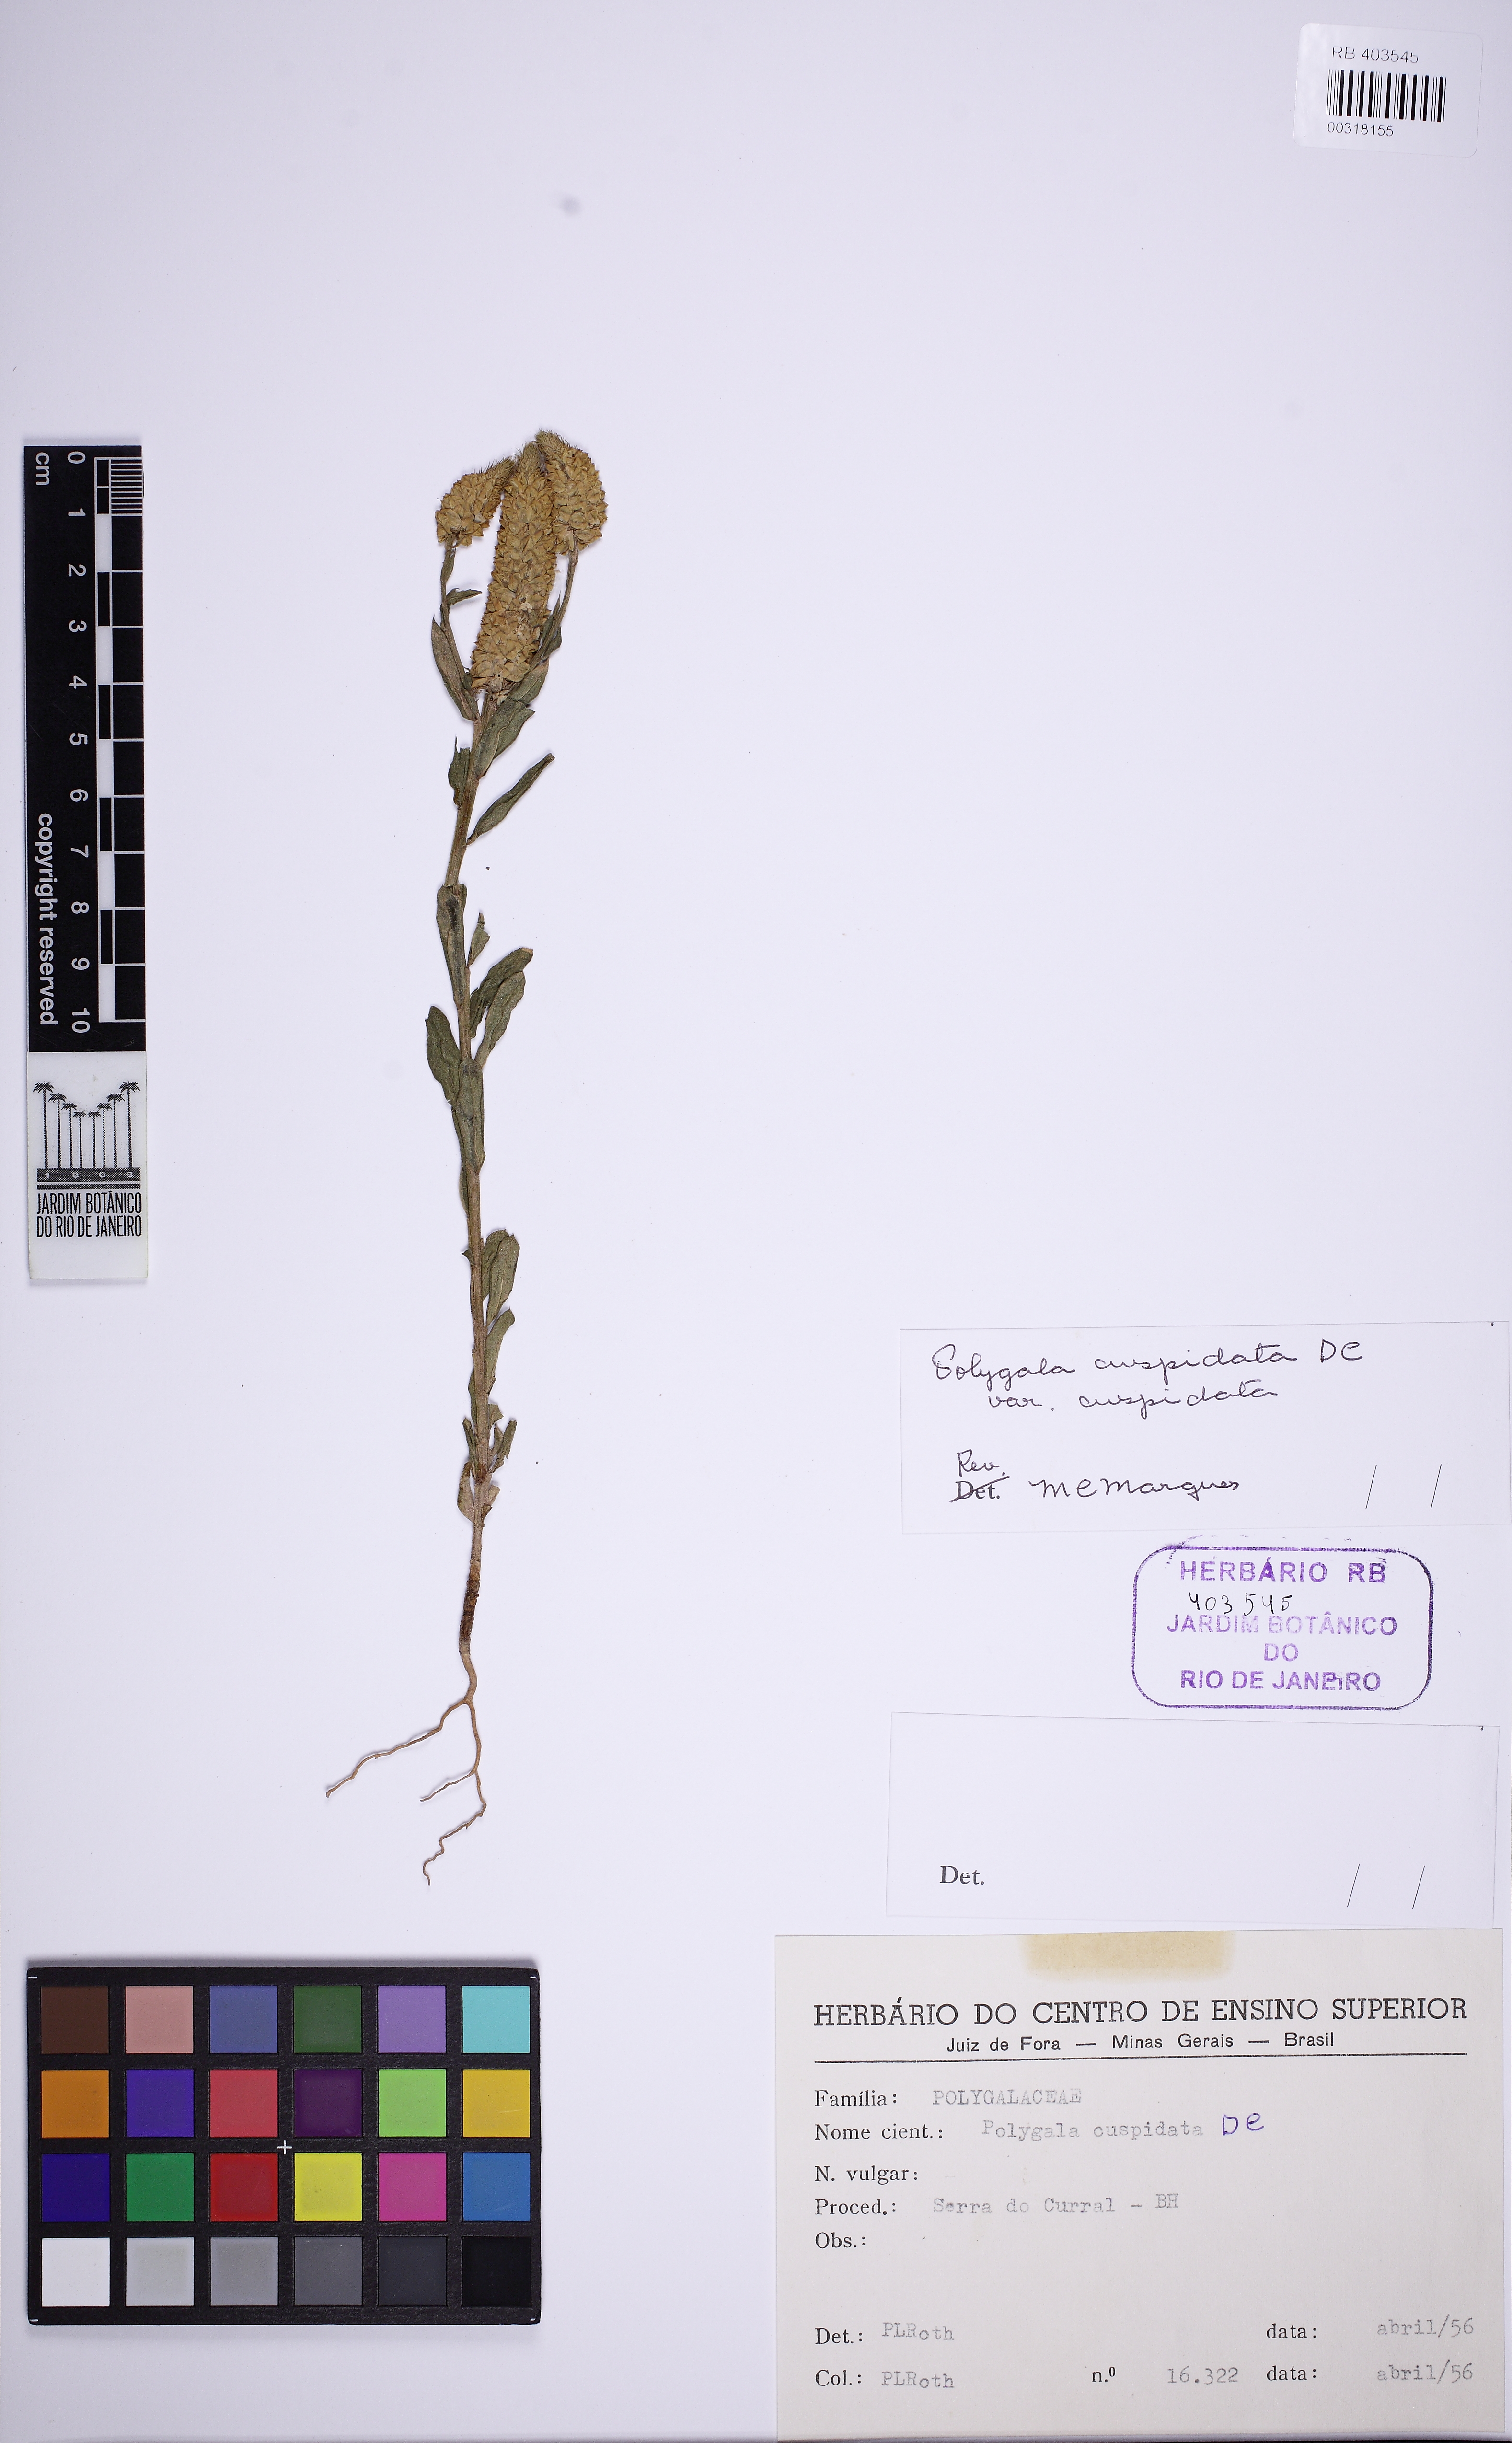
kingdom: Plantae
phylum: Tracheophyta
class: Magnoliopsida
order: Fabales
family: Polygalaceae
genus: Polygala
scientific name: Polygala cuspidata
